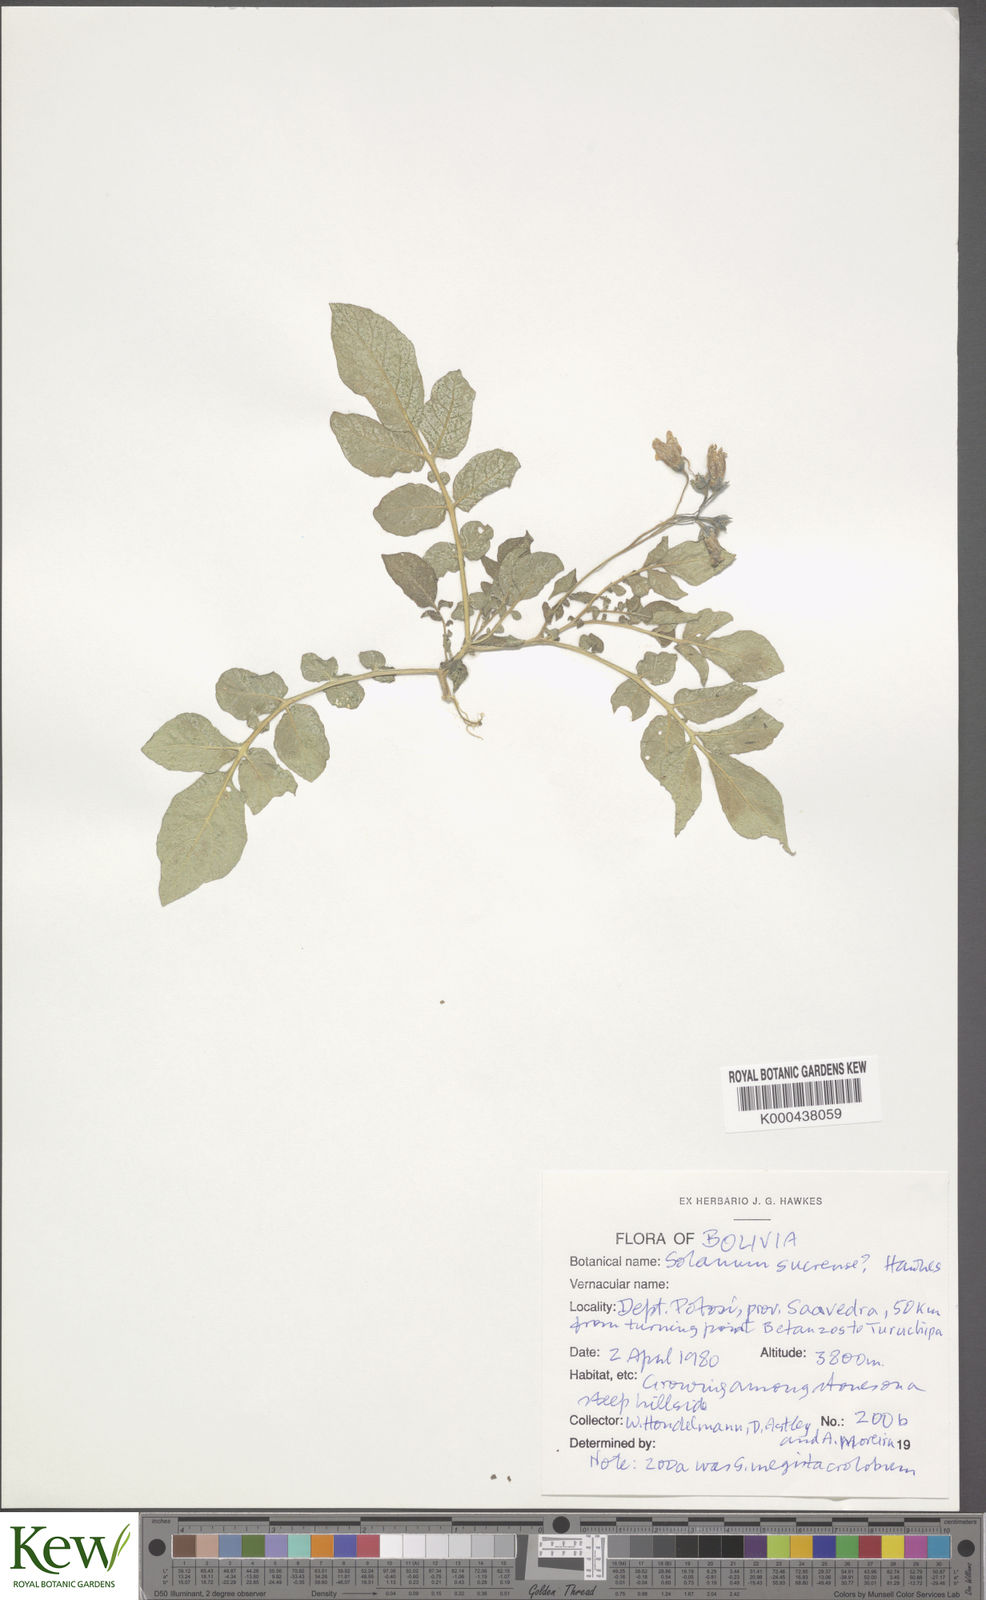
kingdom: Plantae
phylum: Tracheophyta
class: Magnoliopsida
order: Solanales
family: Solanaceae
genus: Solanum
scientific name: Solanum brevicaule
